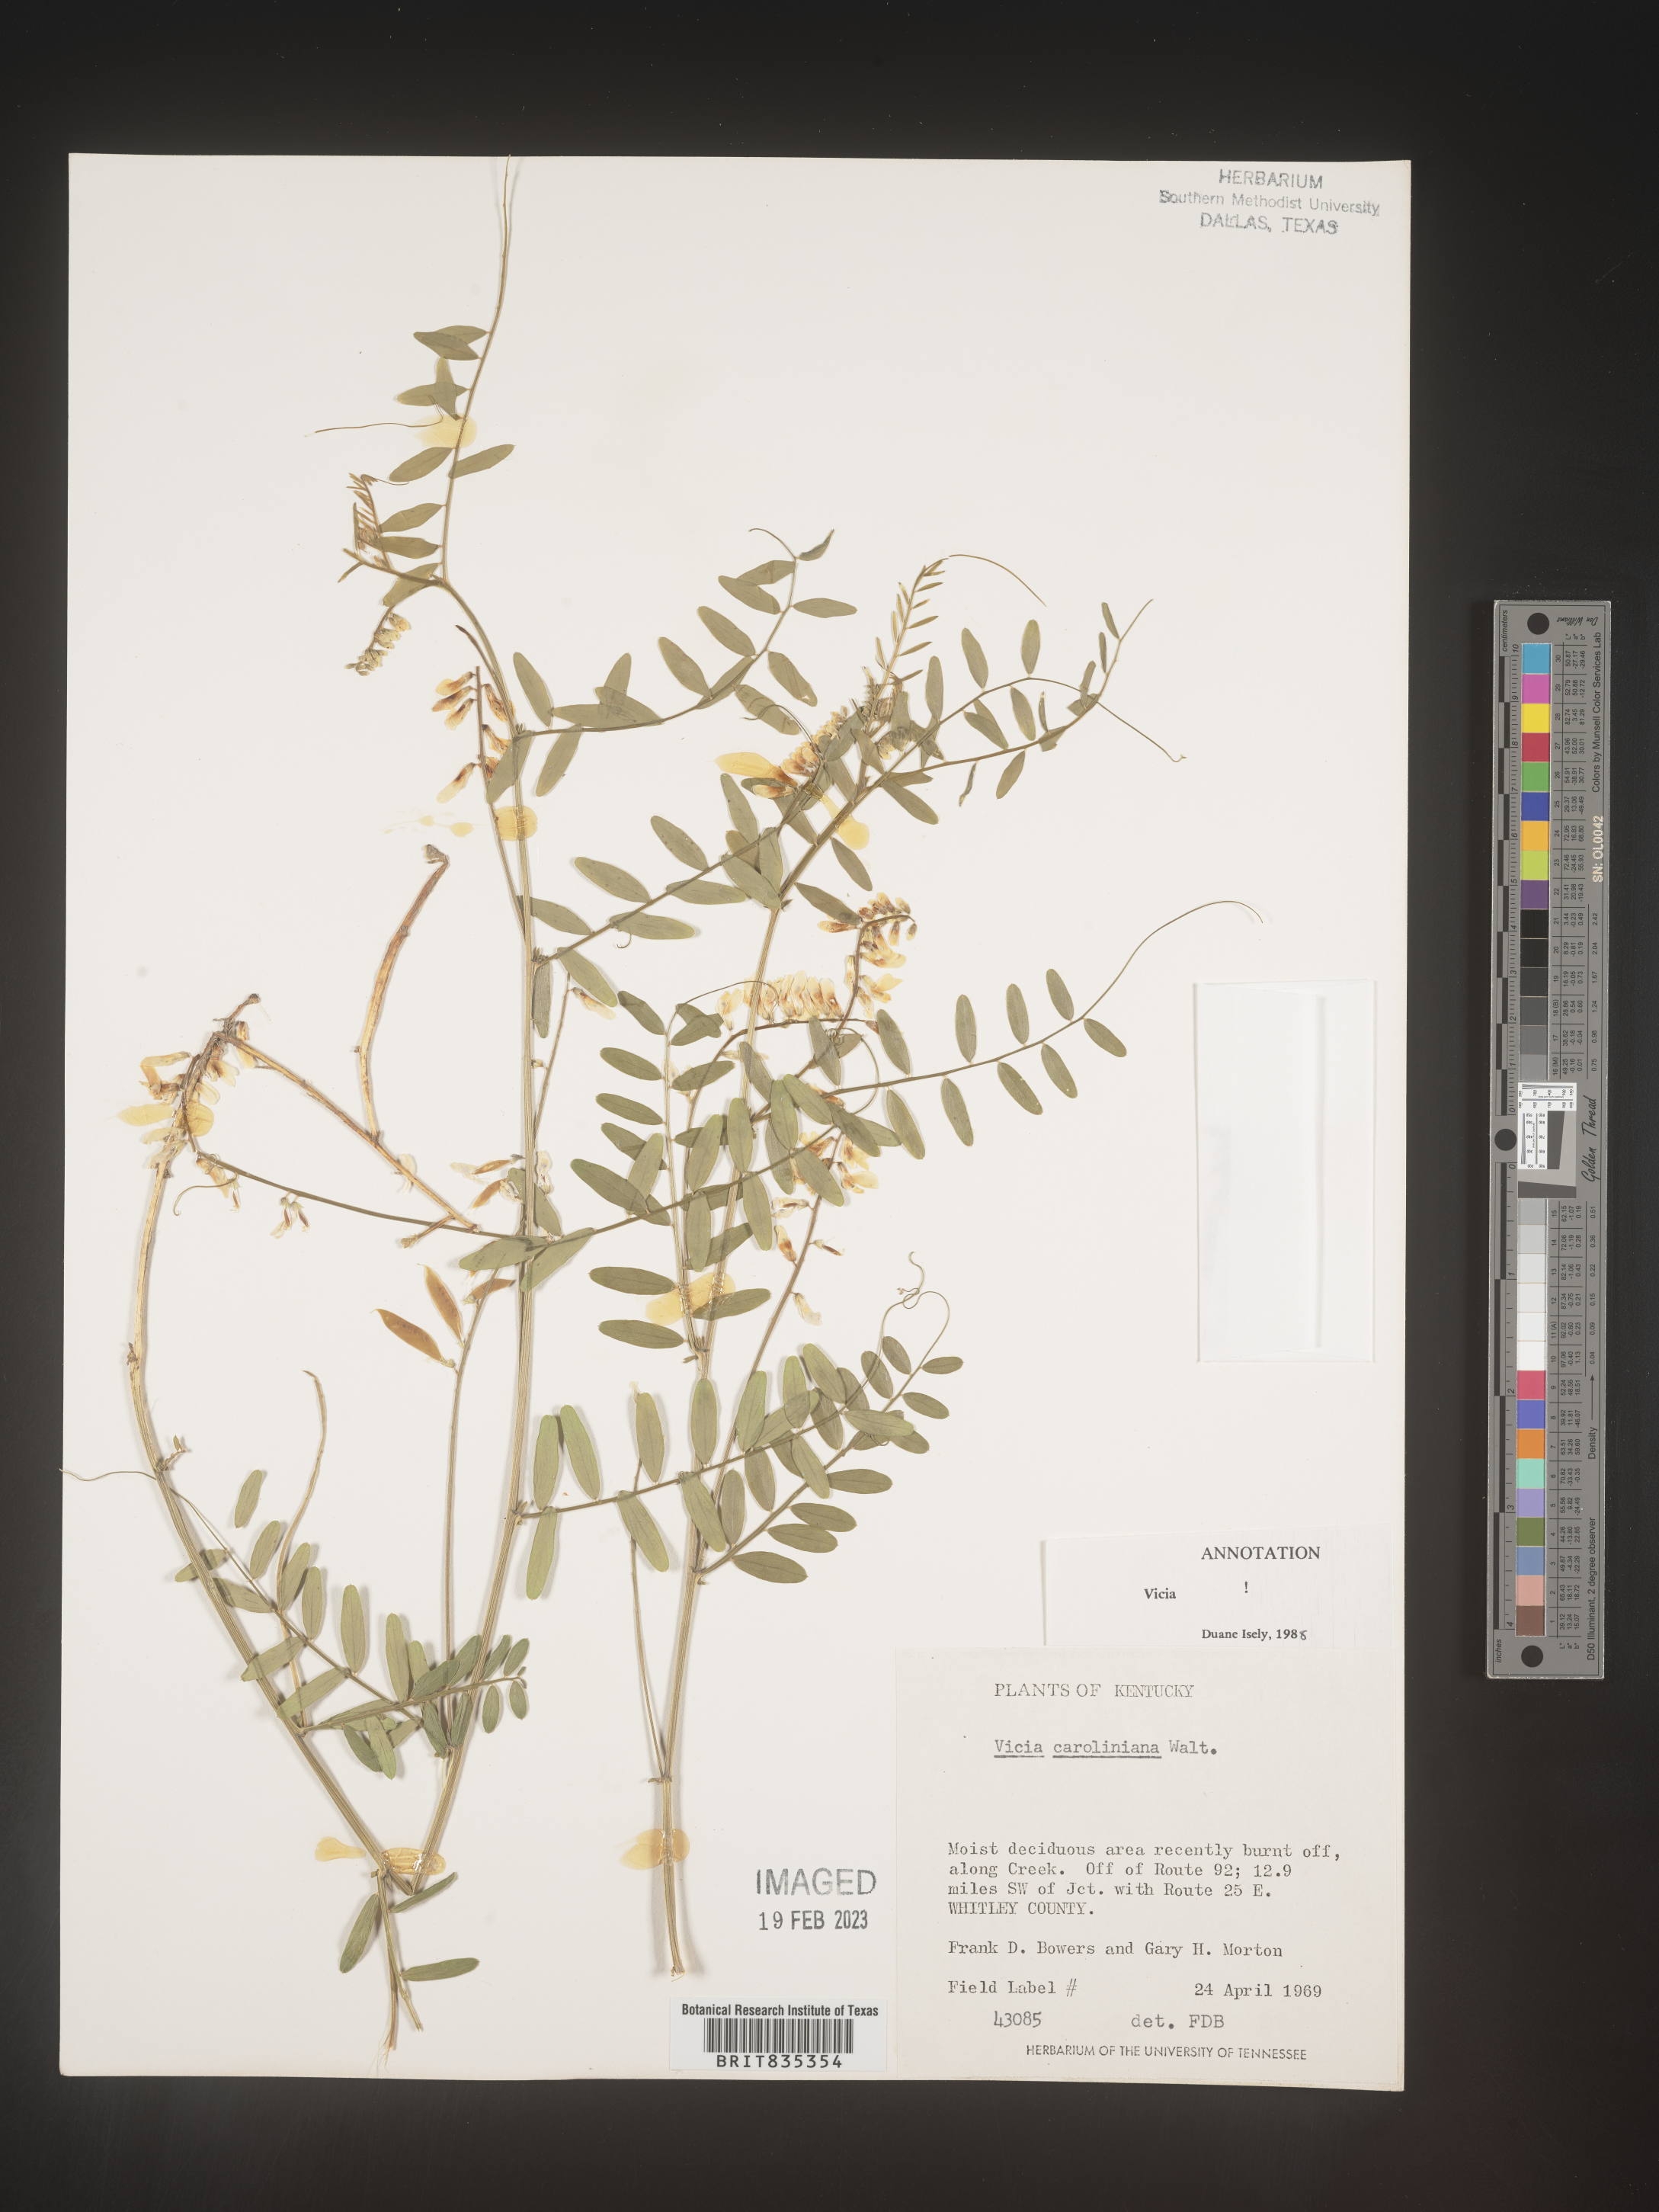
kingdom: Plantae
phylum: Tracheophyta
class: Magnoliopsida
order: Fabales
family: Fabaceae
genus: Vicia
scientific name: Vicia caroliniana
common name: Carolina vetch
